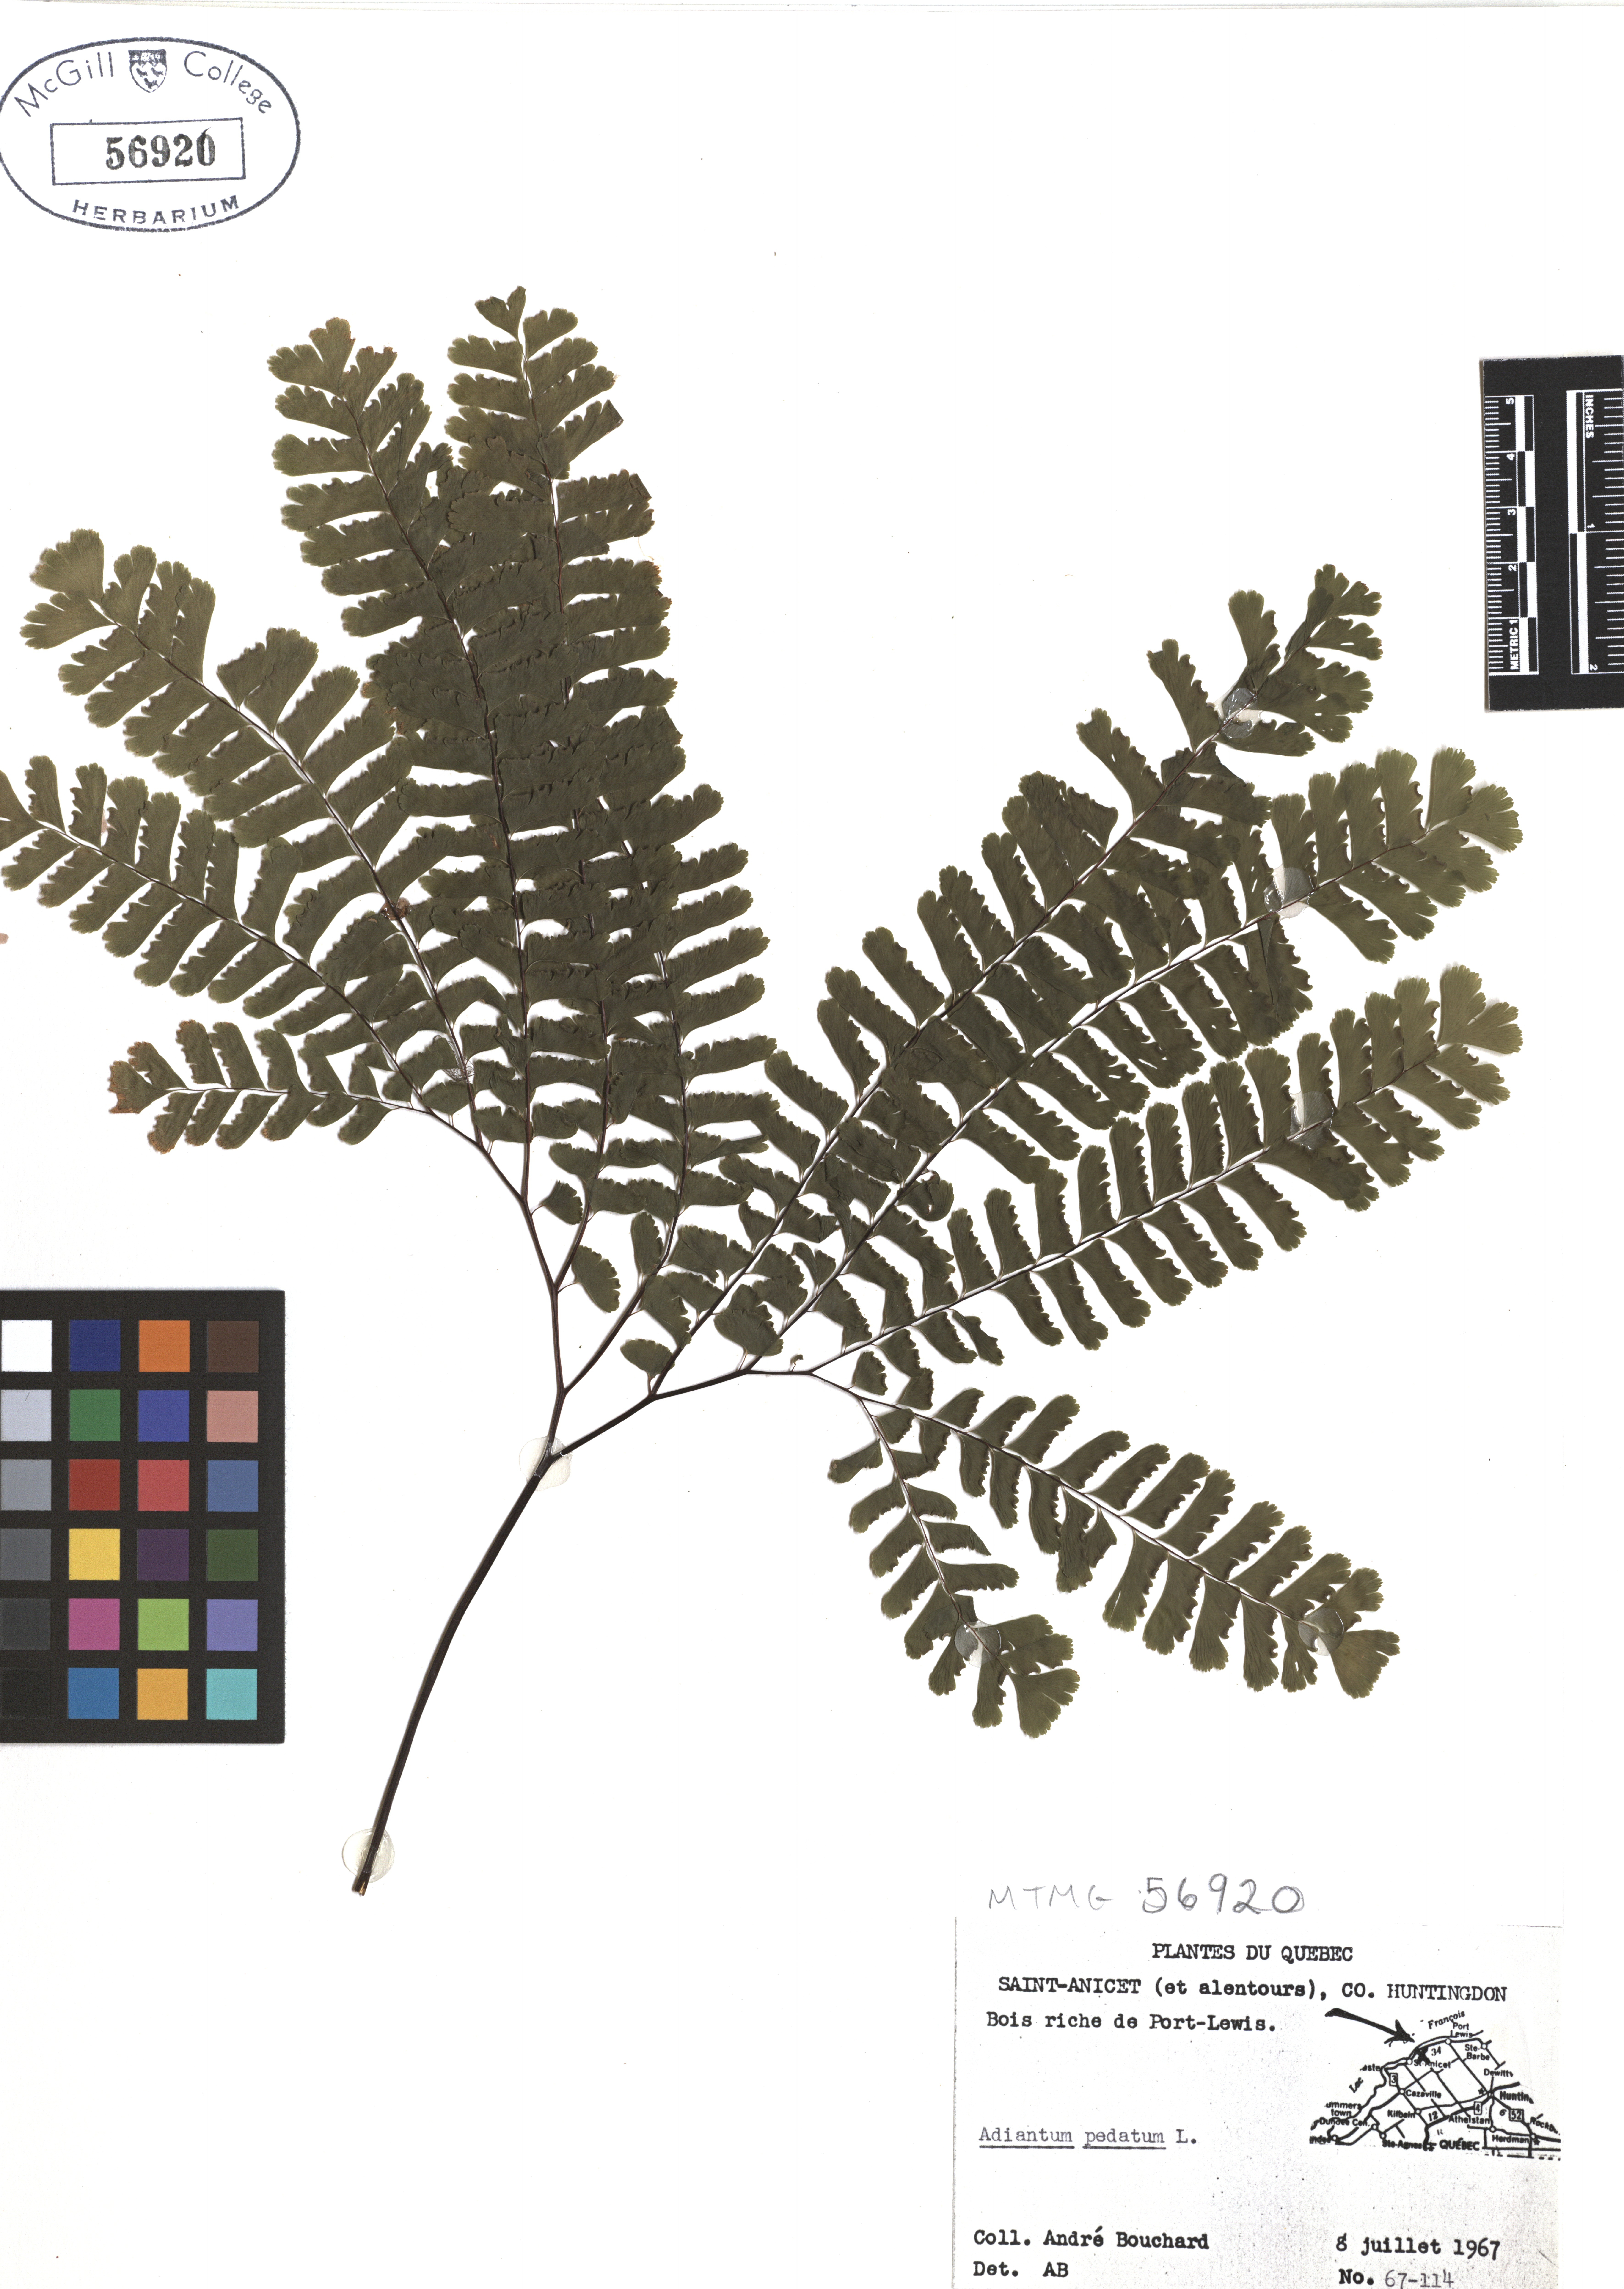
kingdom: Plantae
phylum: Tracheophyta
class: Polypodiopsida
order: Polypodiales
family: Pteridaceae
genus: Adiantum
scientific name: Adiantum pedatum
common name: Five-finger fern
